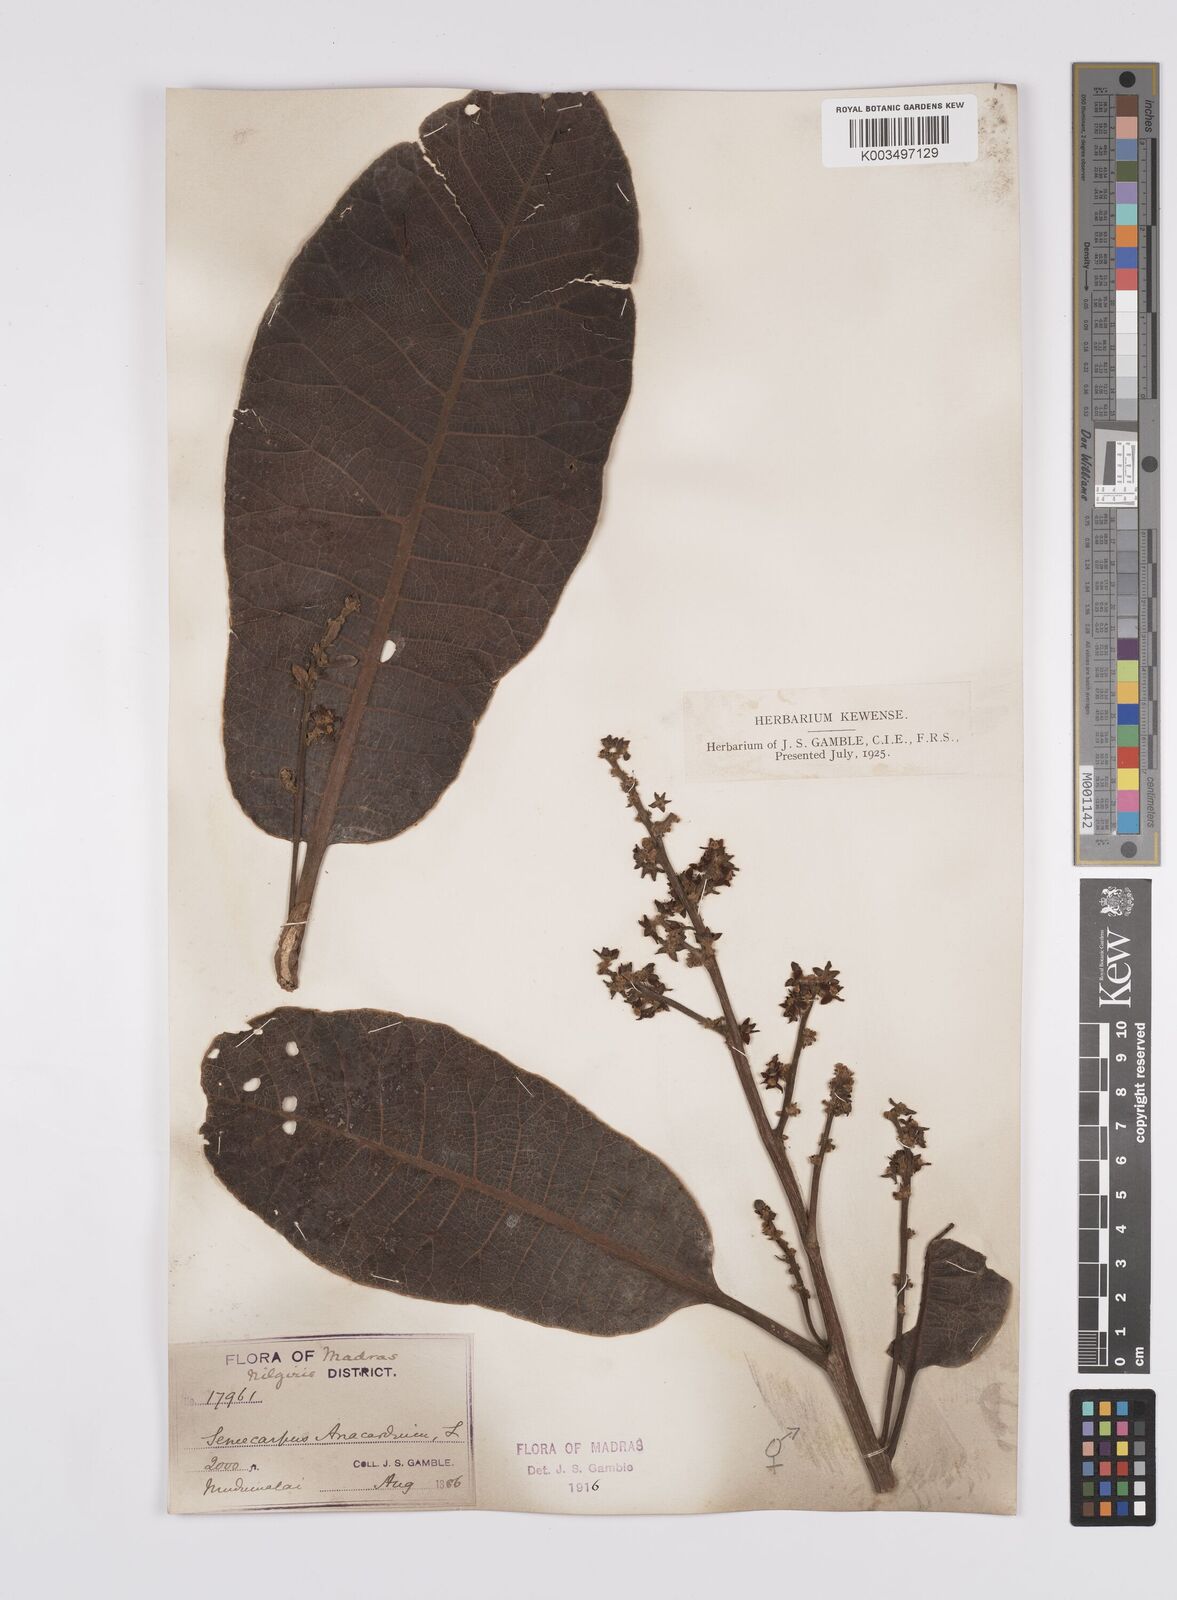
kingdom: Plantae
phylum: Tracheophyta
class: Magnoliopsida
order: Sapindales
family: Anacardiaceae
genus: Semecarpus
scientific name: Semecarpus anacardium
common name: Marking nut-tree
